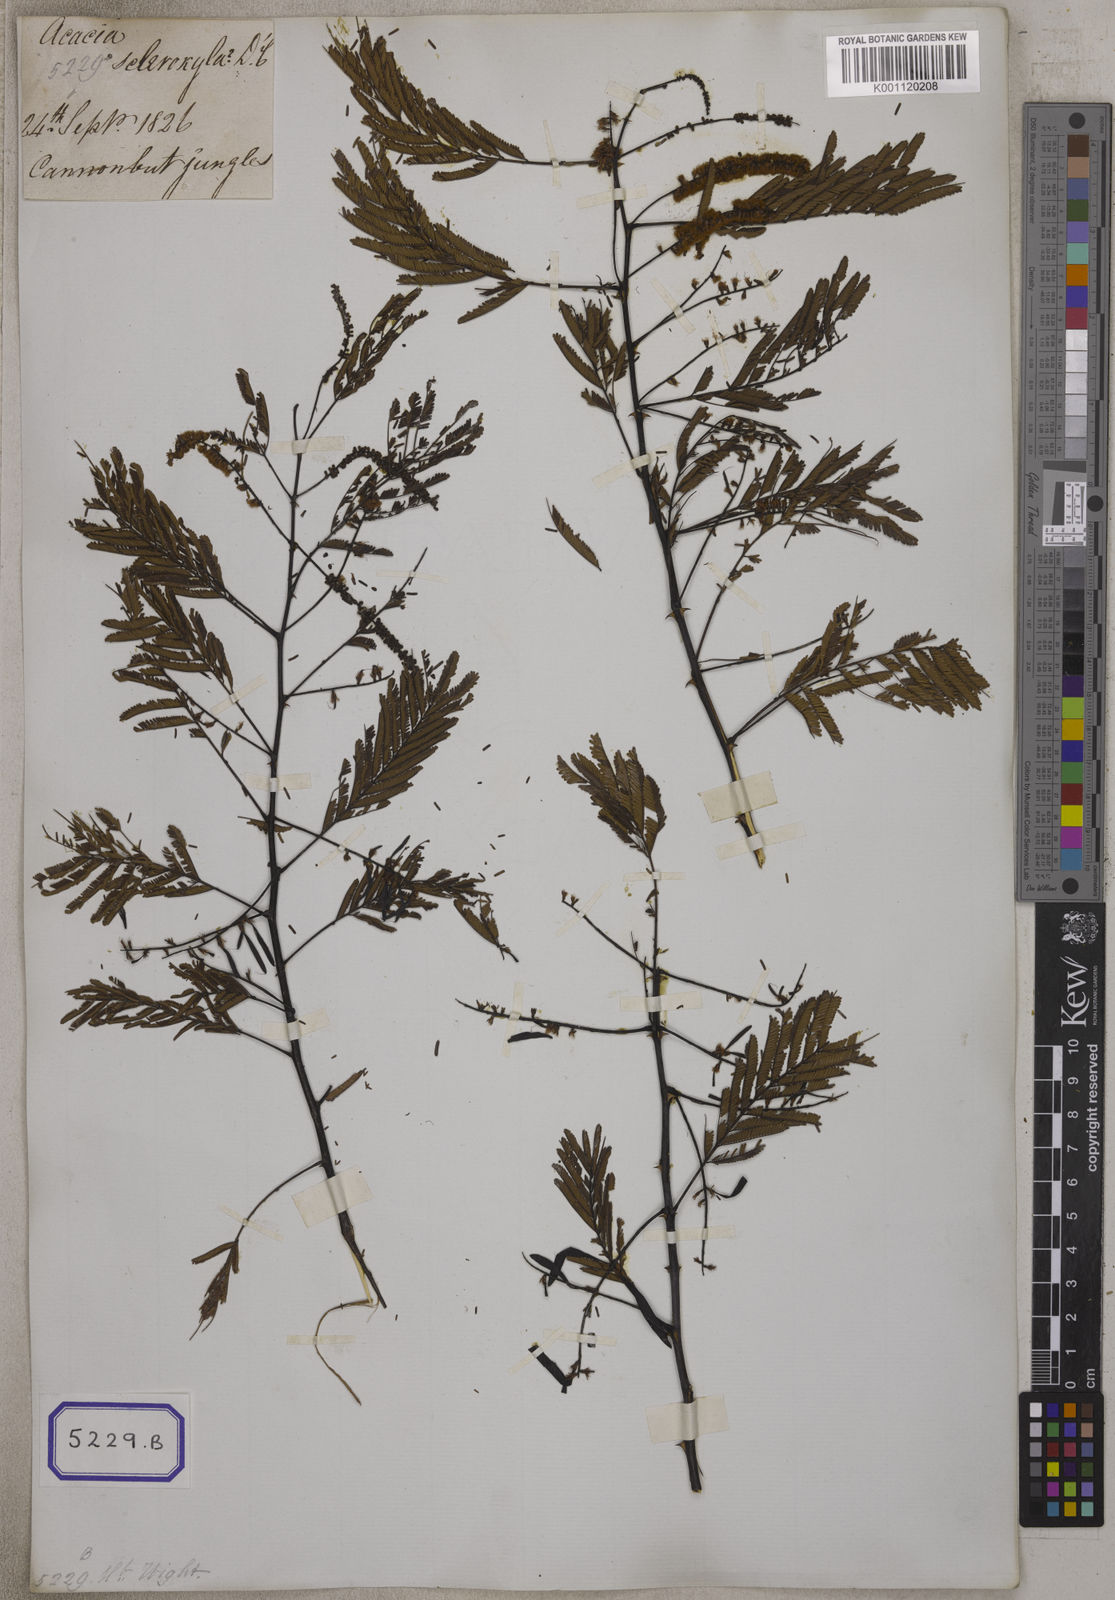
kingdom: Plantae
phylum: Tracheophyta
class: Magnoliopsida
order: Fabales
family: Fabaceae
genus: Senegalia
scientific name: Senegalia catechu
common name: Black cutch
